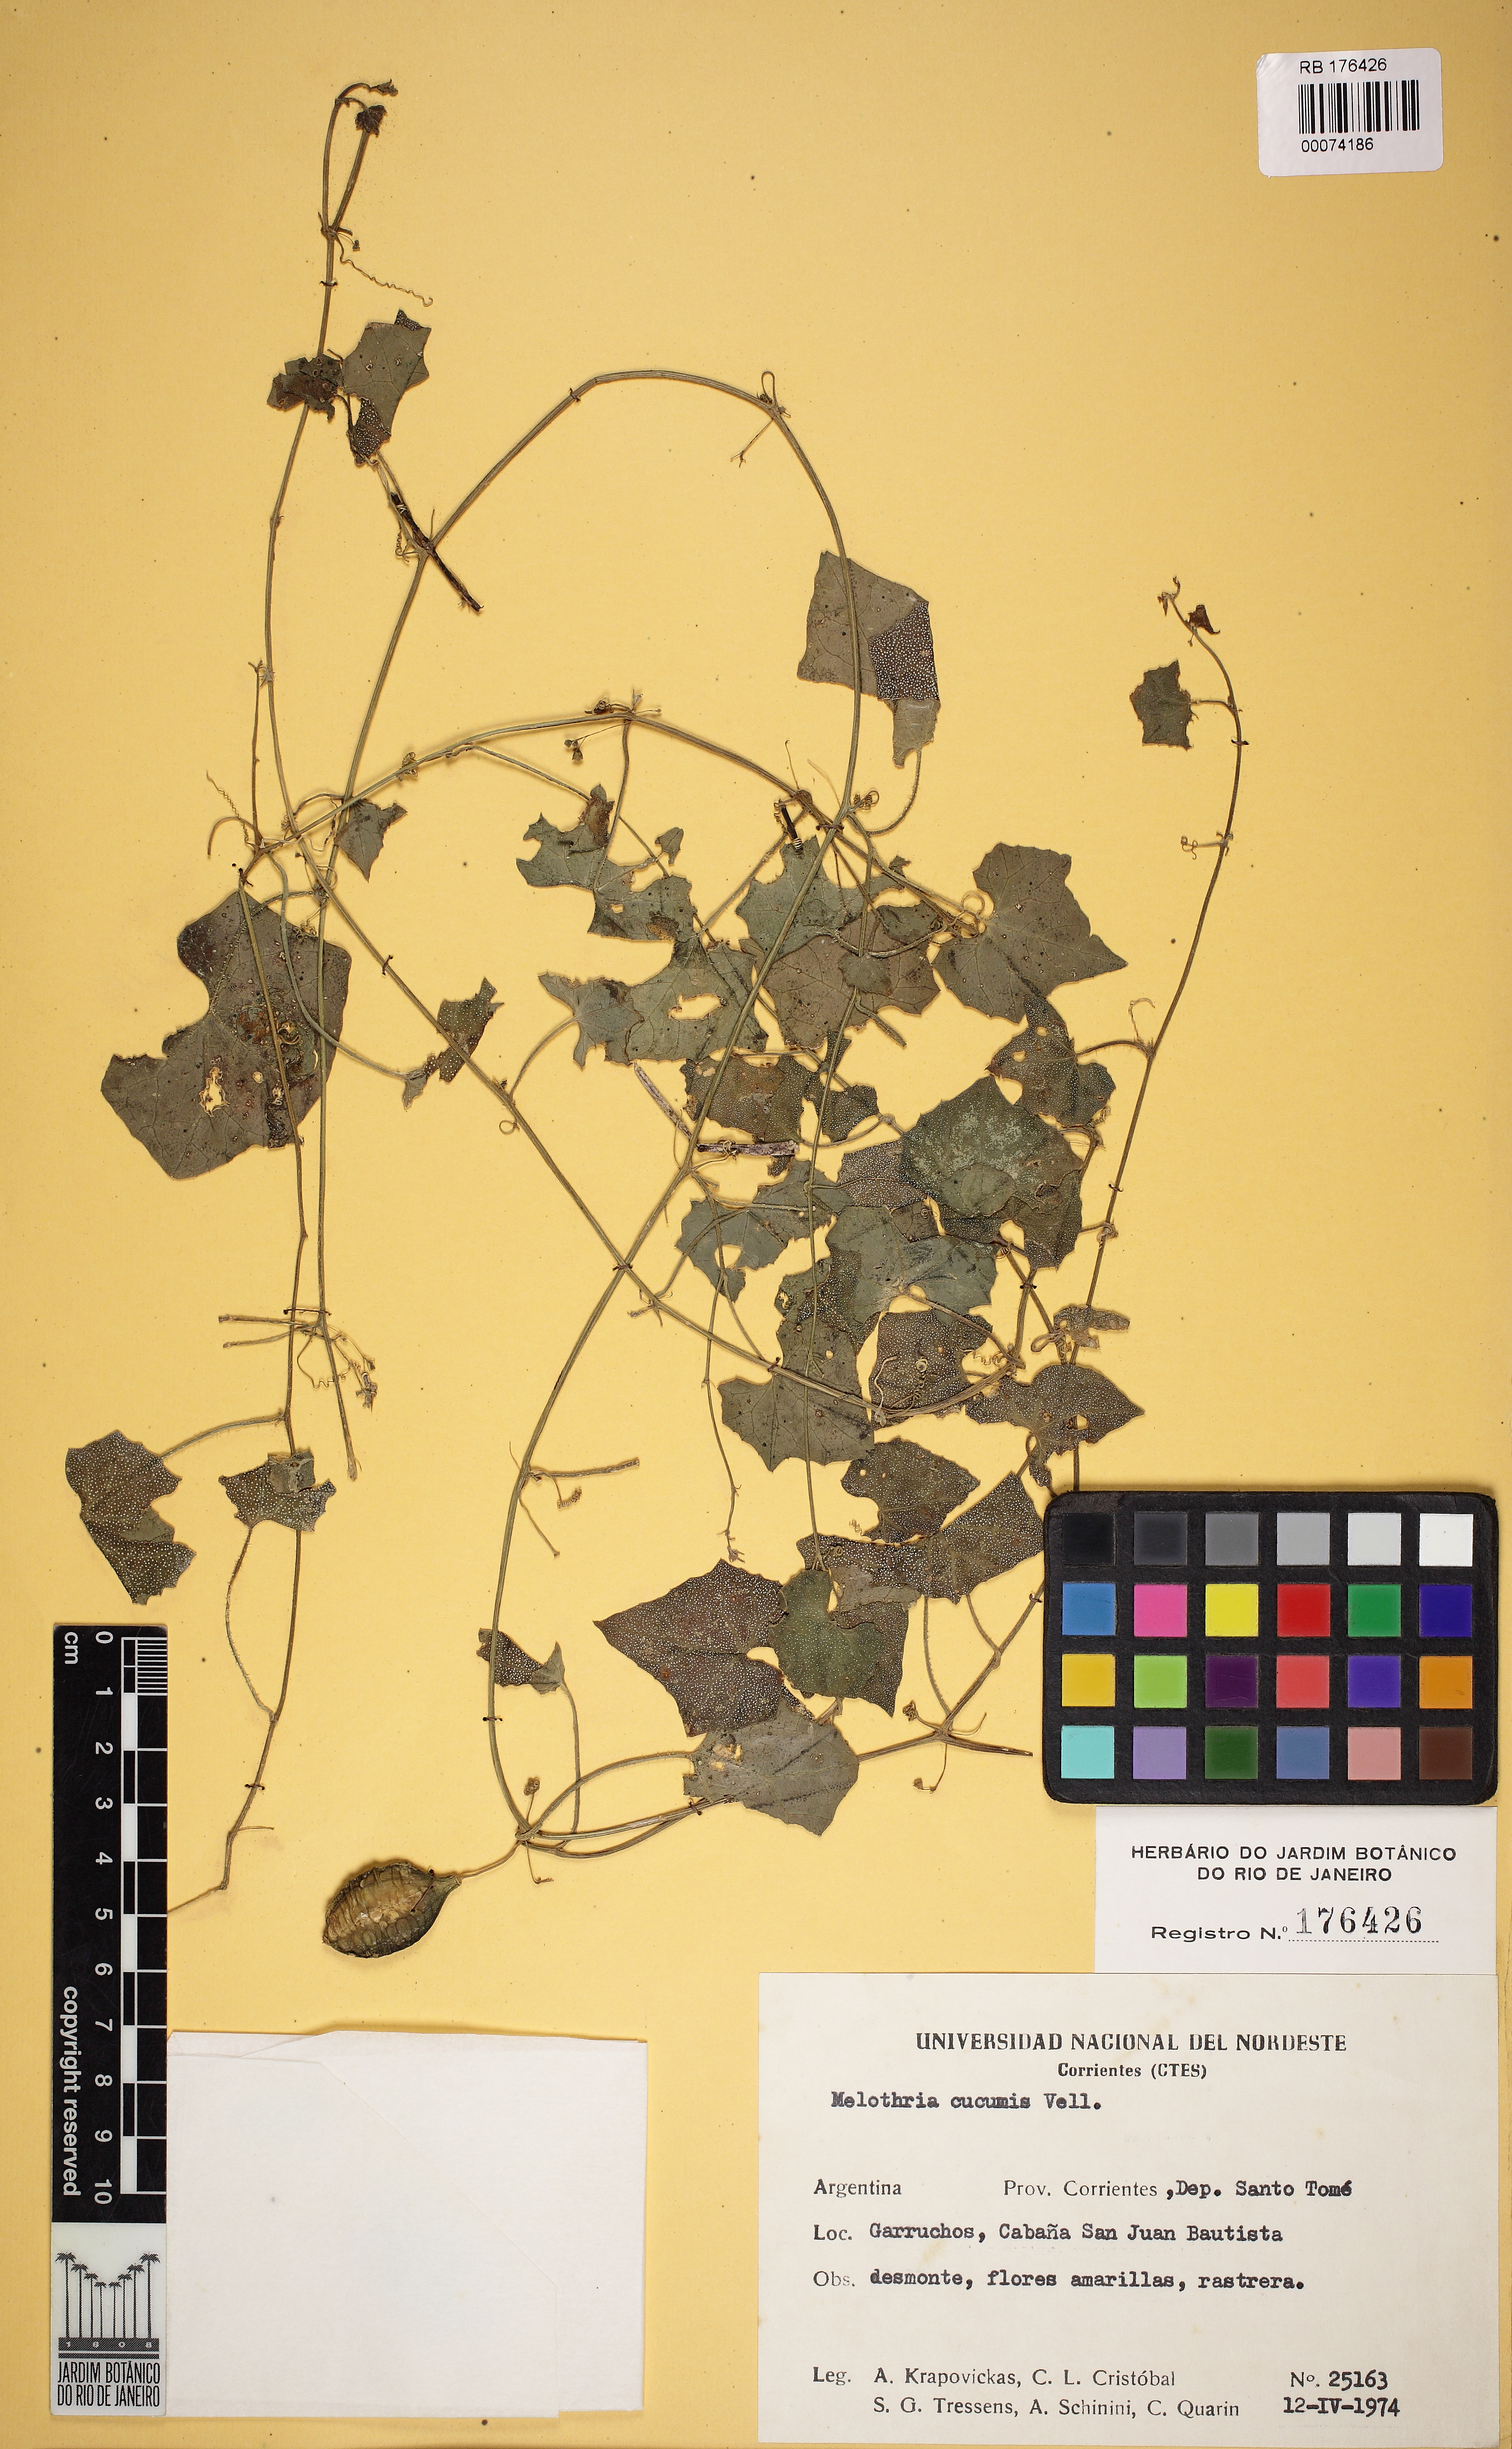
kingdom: Plantae
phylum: Tracheophyta
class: Magnoliopsida
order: Cucurbitales
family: Cucurbitaceae
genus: Melothria
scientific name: Melothria cucumis
